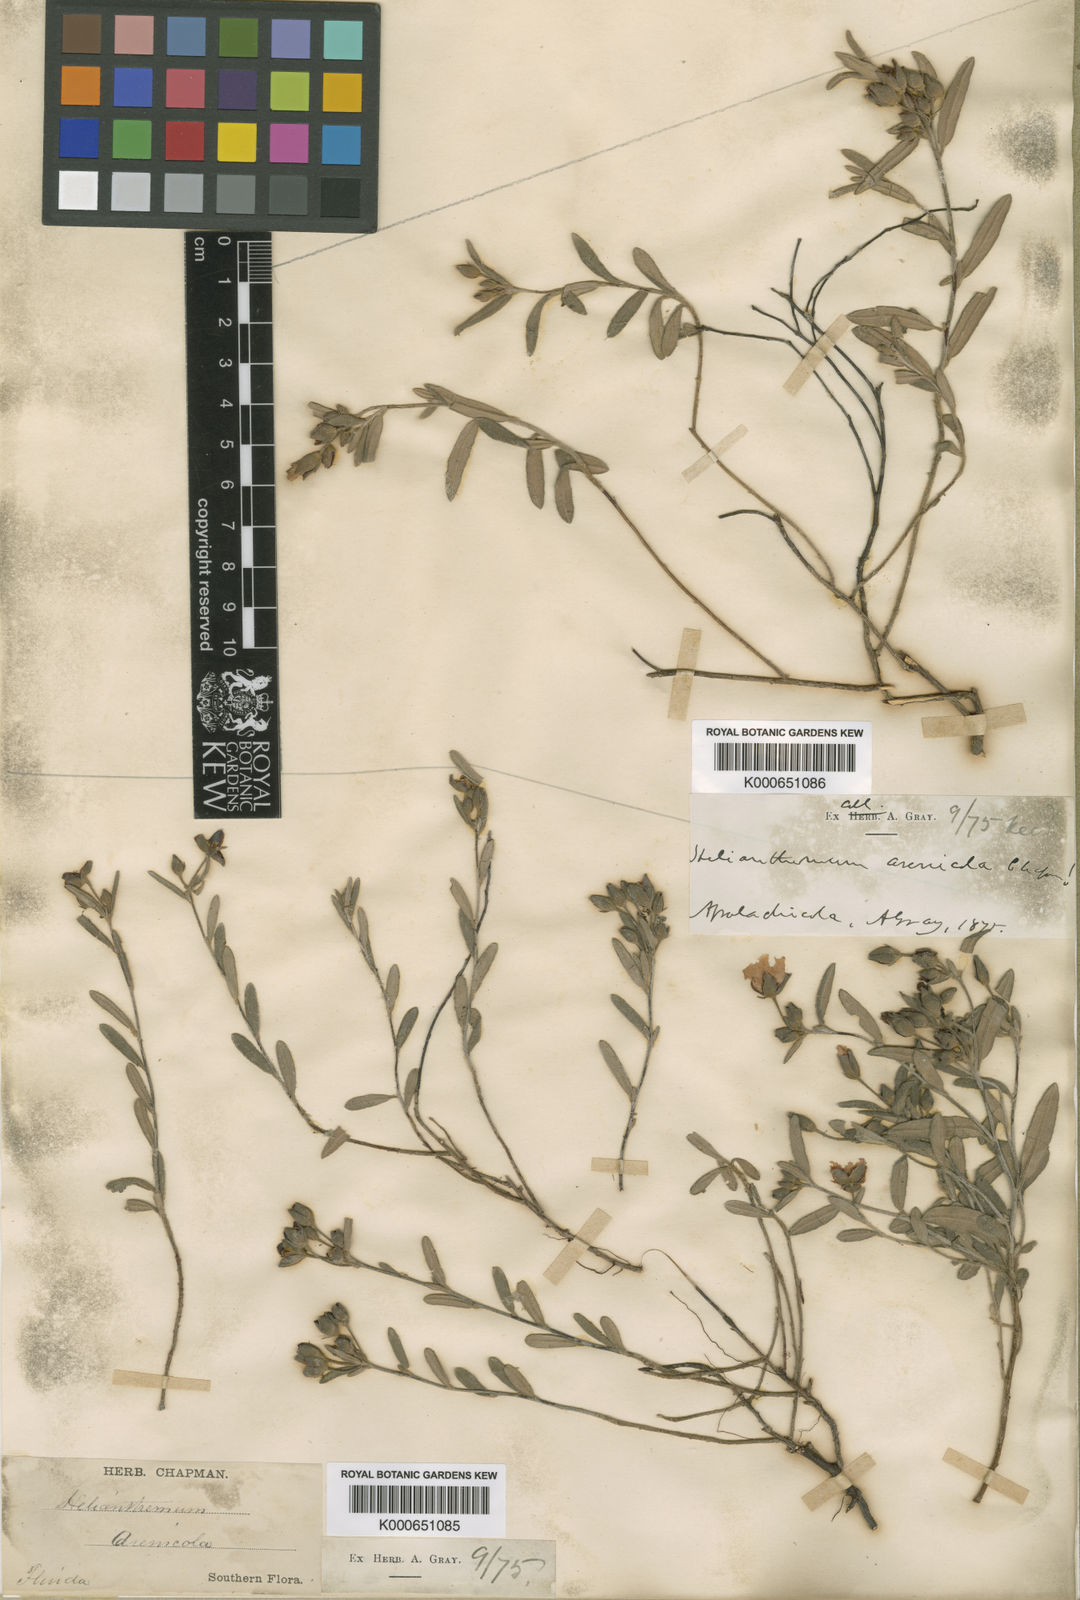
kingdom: Plantae
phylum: Tracheophyta
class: Magnoliopsida
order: Malvales
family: Cistaceae
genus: Crocanthemum
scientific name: Crocanthemum arenicola
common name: Gulf coast frostweed
